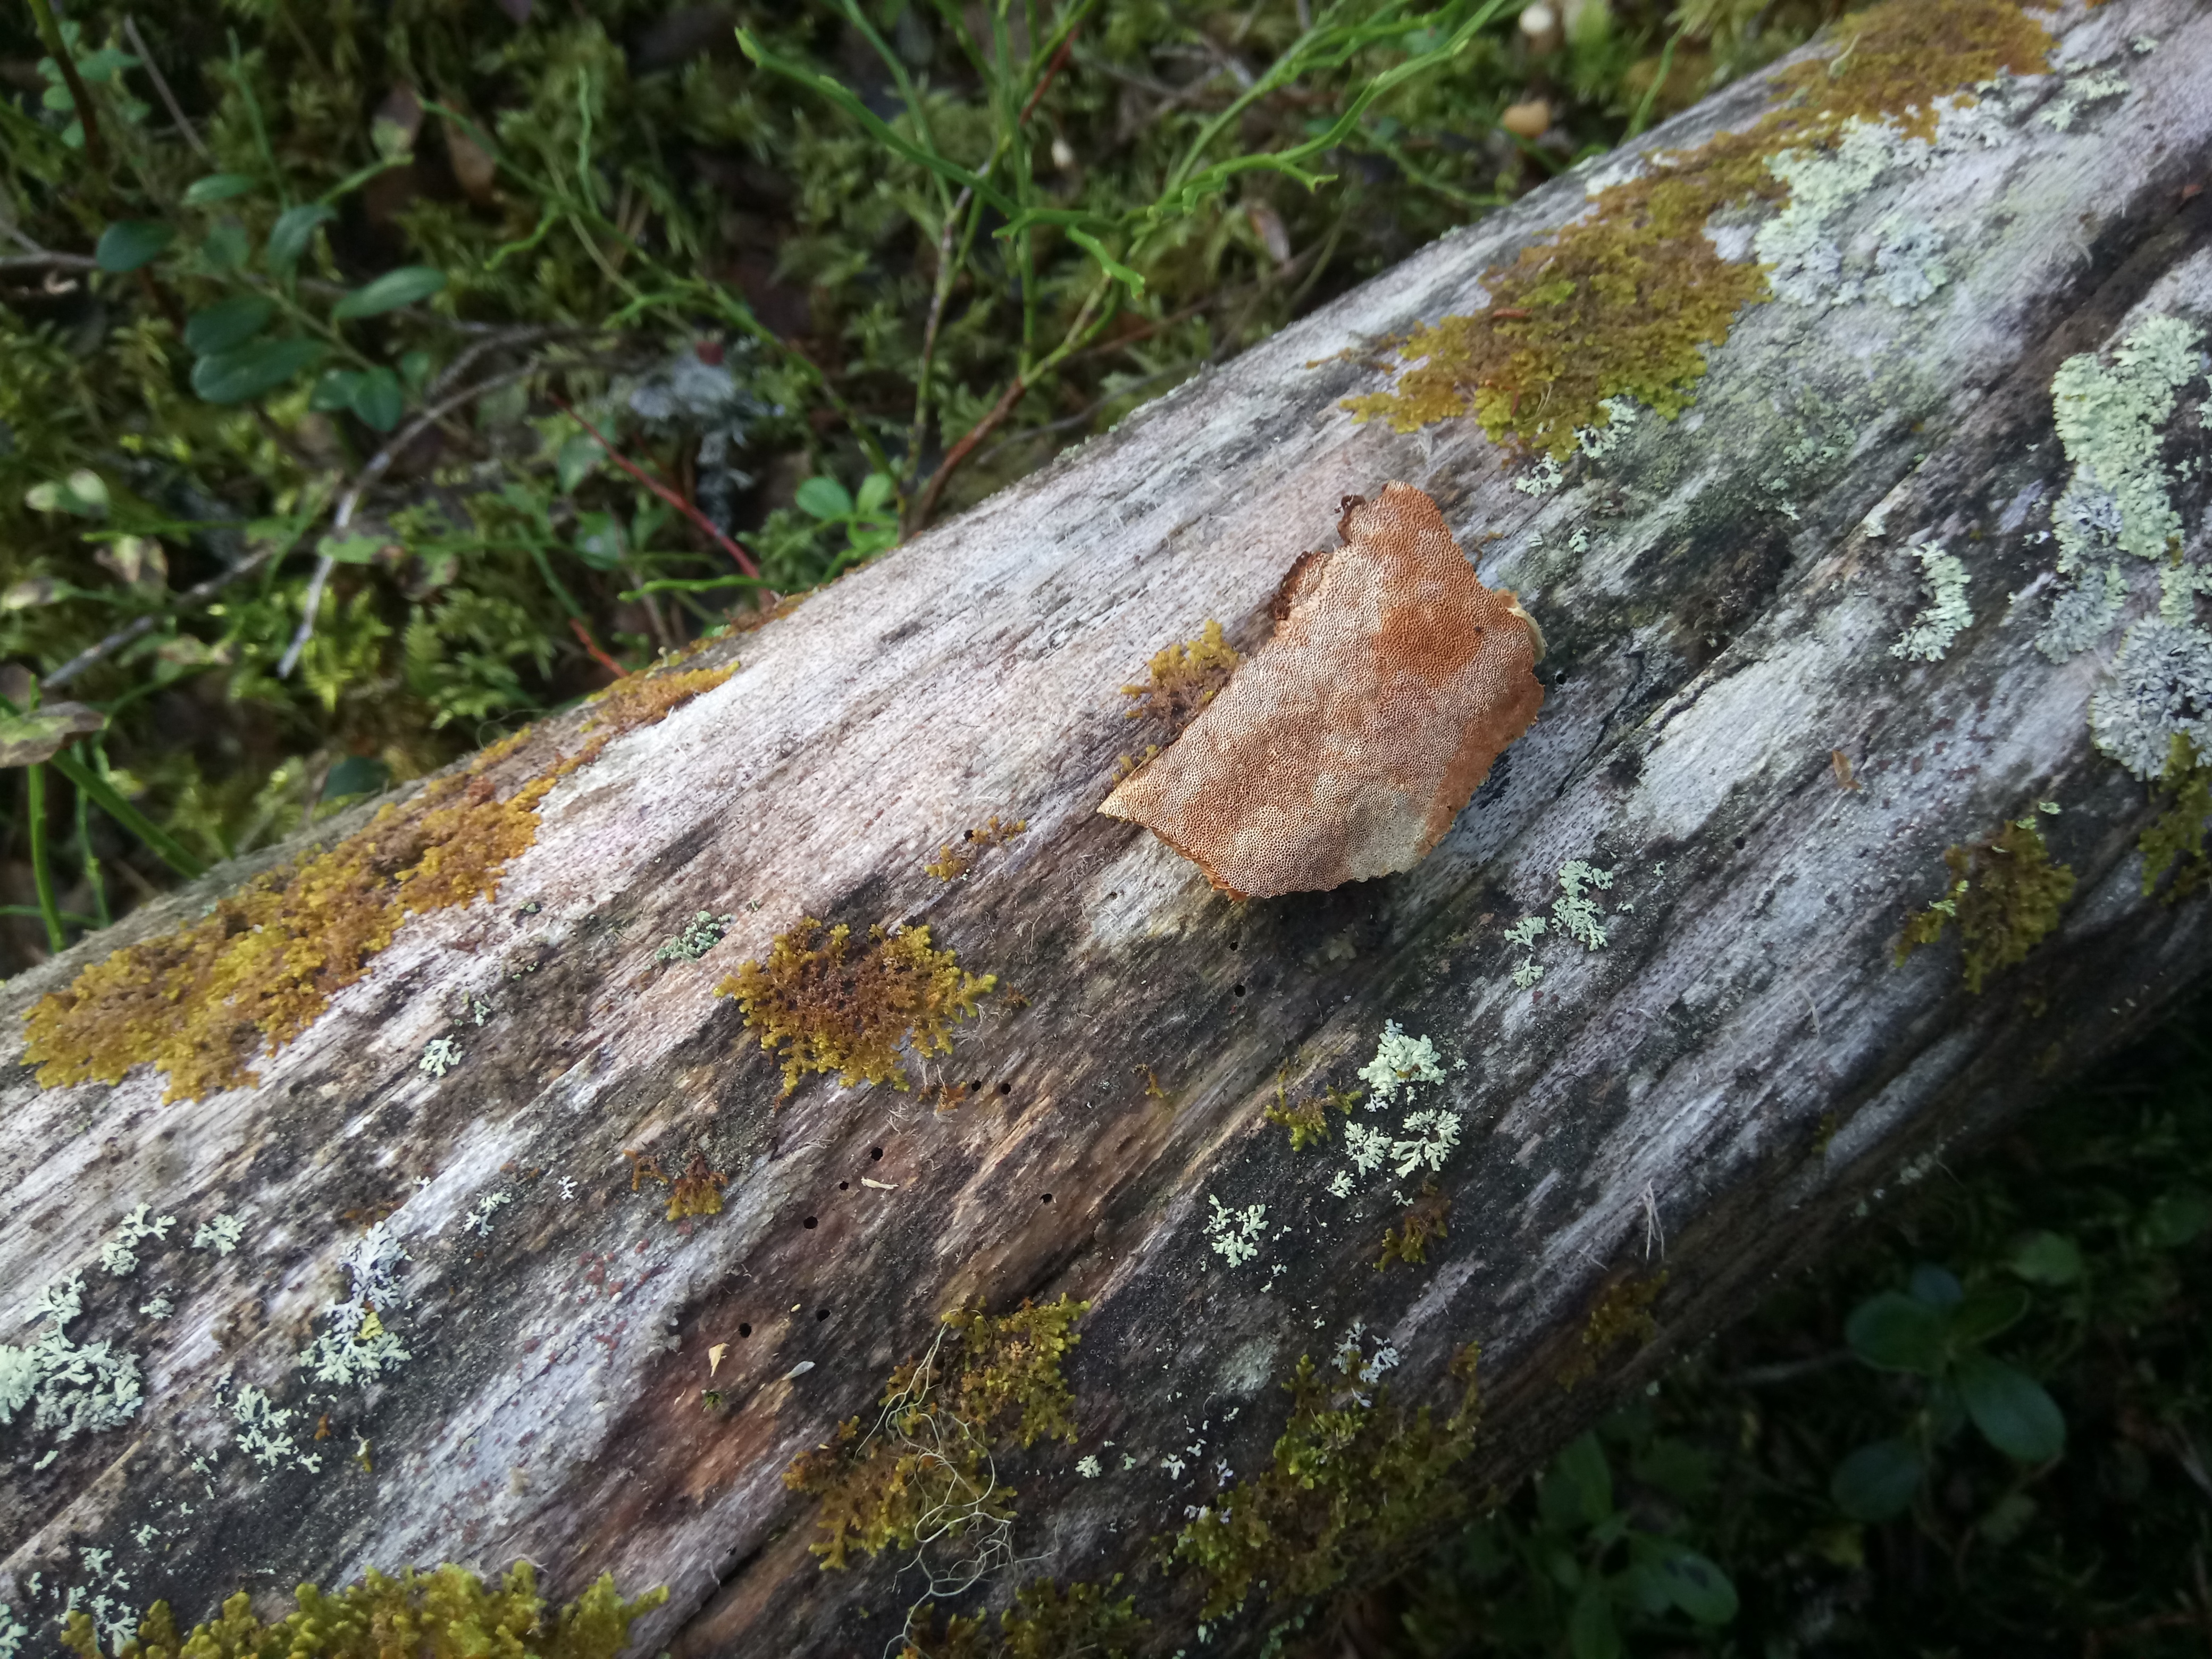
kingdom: Fungi
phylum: Basidiomycota
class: Agaricomycetes
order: Hymenochaetales
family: Hymenochaetaceae
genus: Phellinus
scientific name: Phellinus viticola
